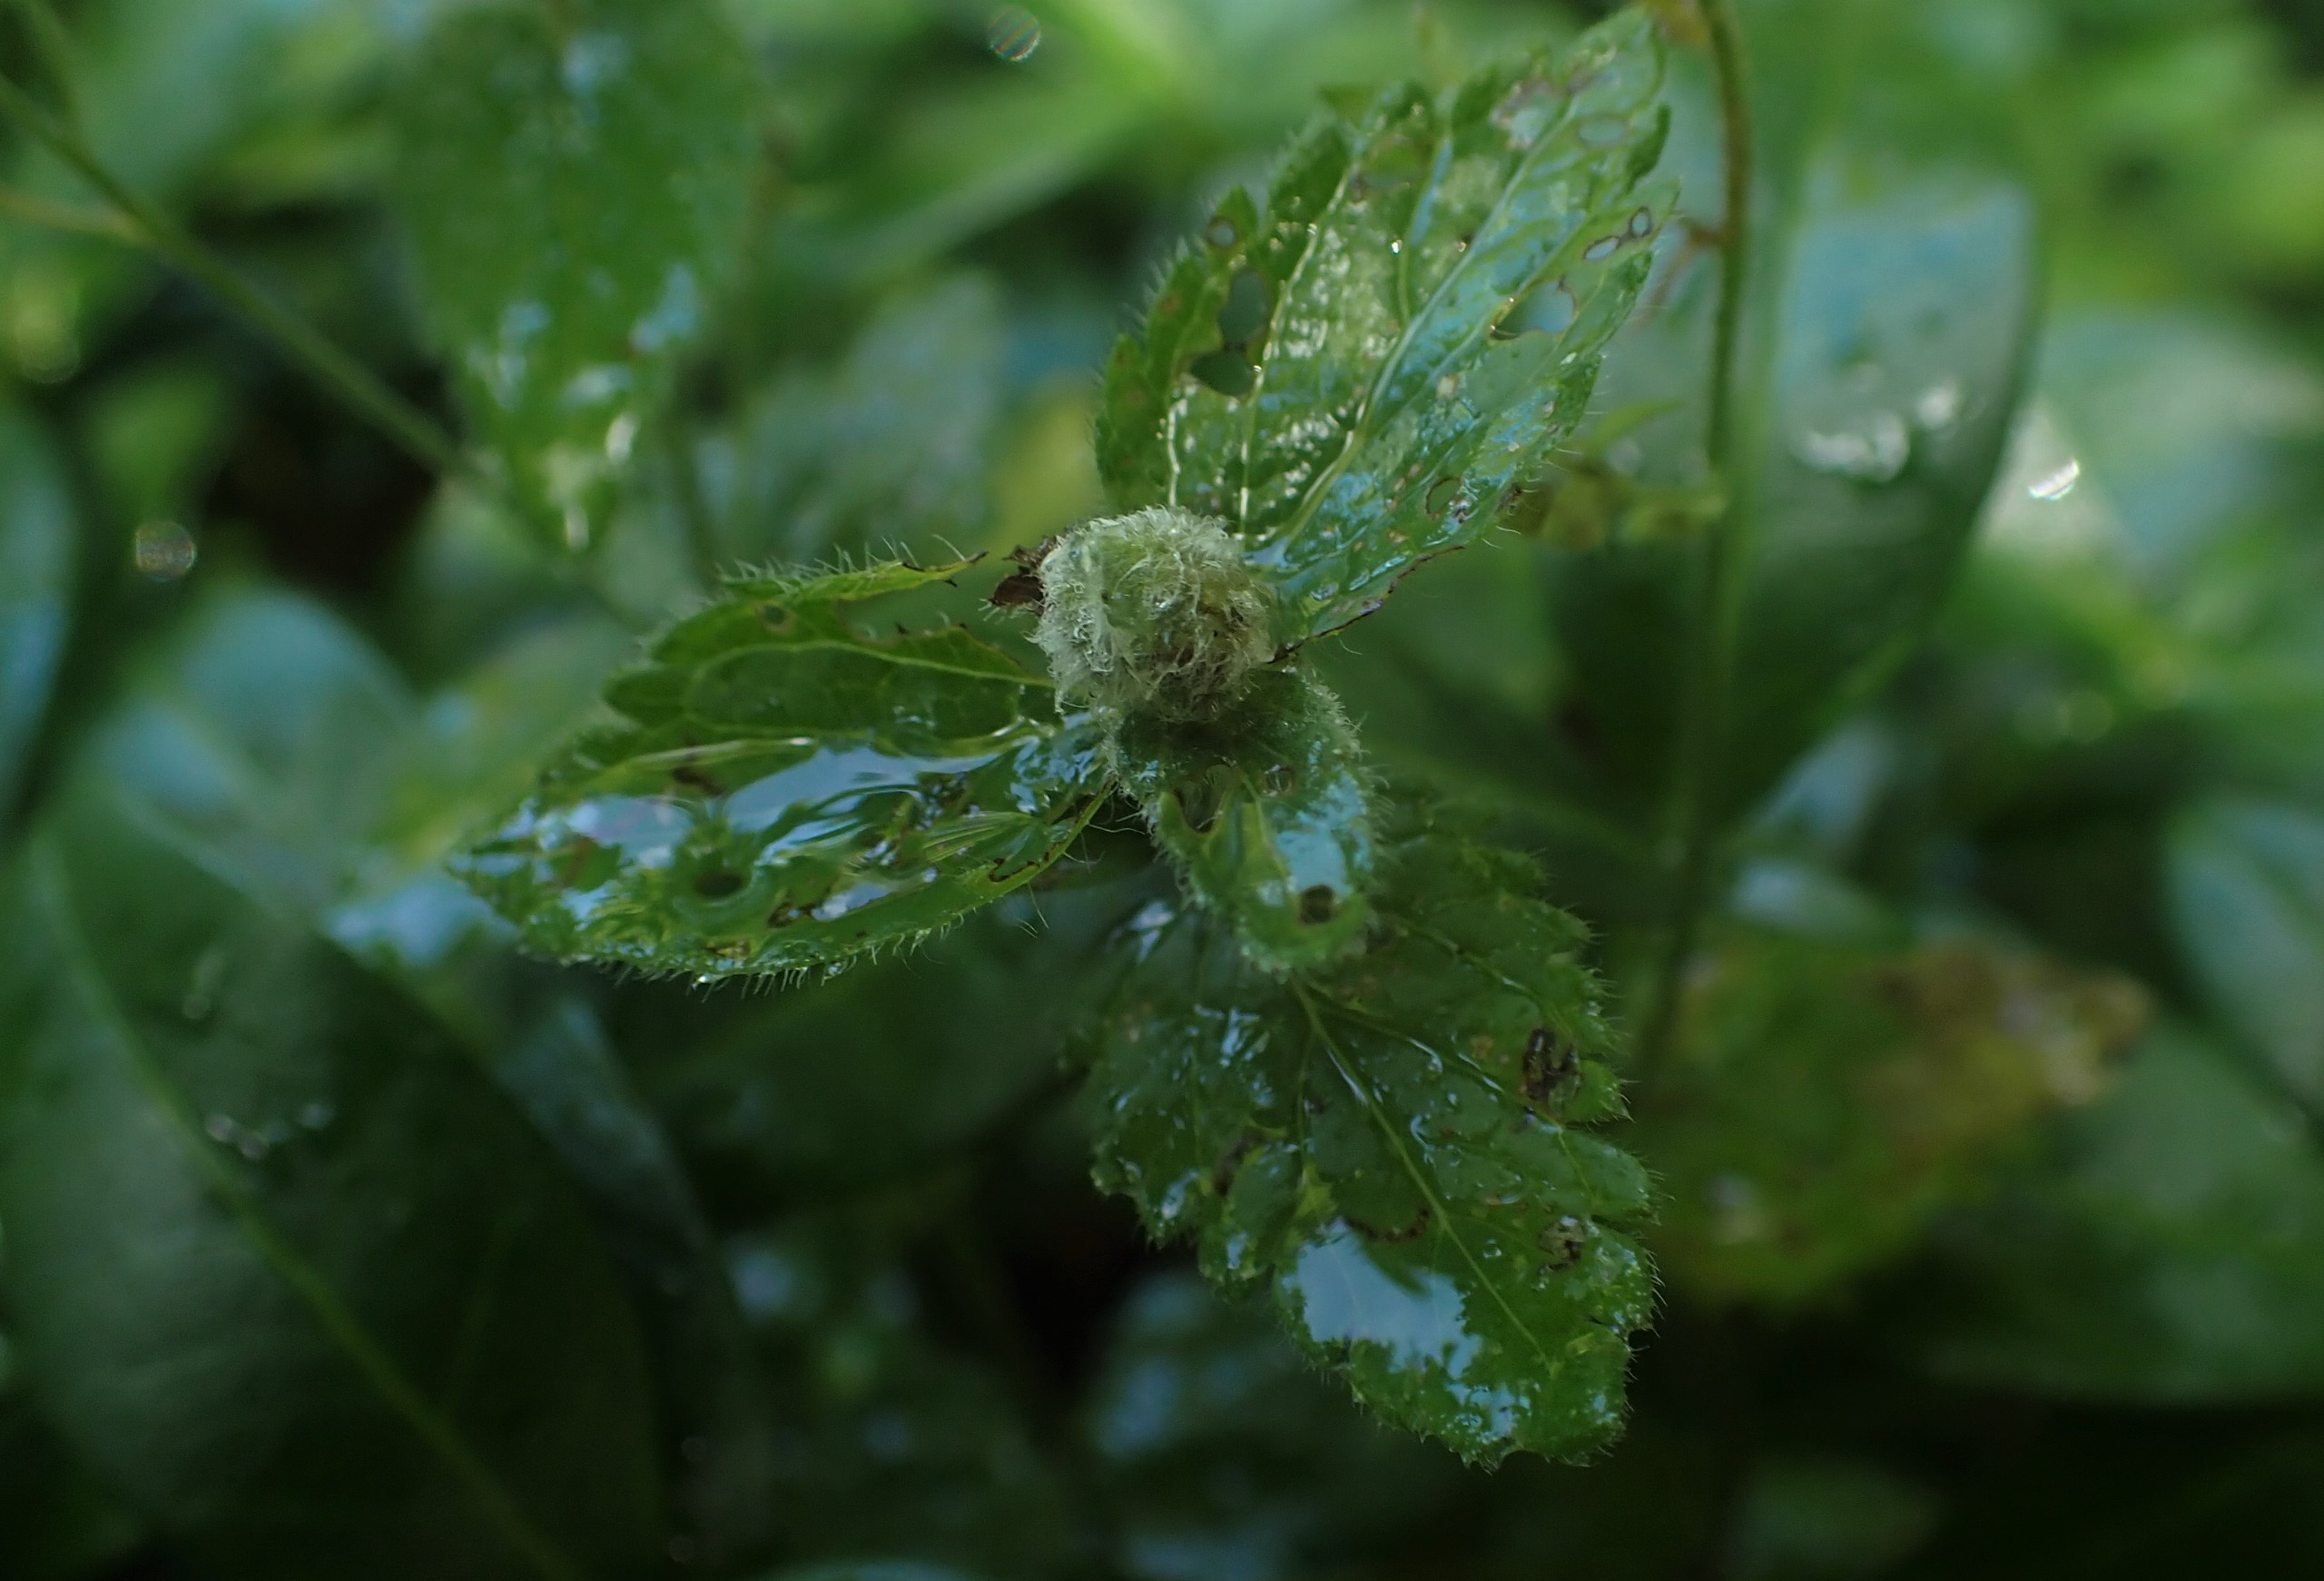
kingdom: Animalia
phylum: Arthropoda
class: Insecta
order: Diptera
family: Cecidomyiidae
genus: Jaapiella
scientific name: Jaapiella veronicae
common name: Ærenprisgalmyg
